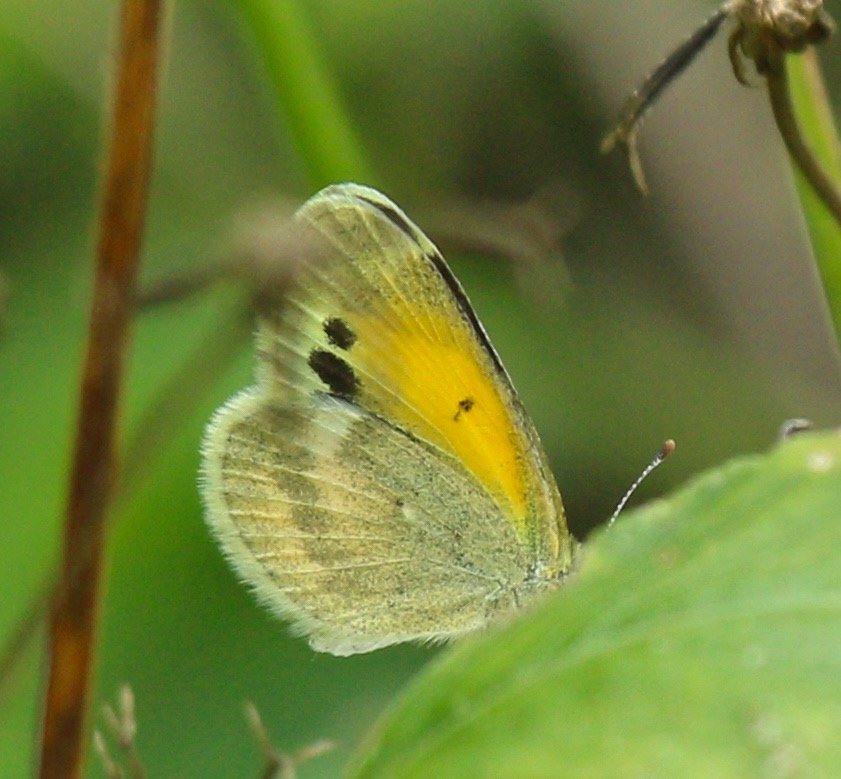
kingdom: Animalia
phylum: Arthropoda
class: Insecta
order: Lepidoptera
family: Pieridae
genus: Nathalis
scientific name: Nathalis iole
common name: Dainty Sulphur
